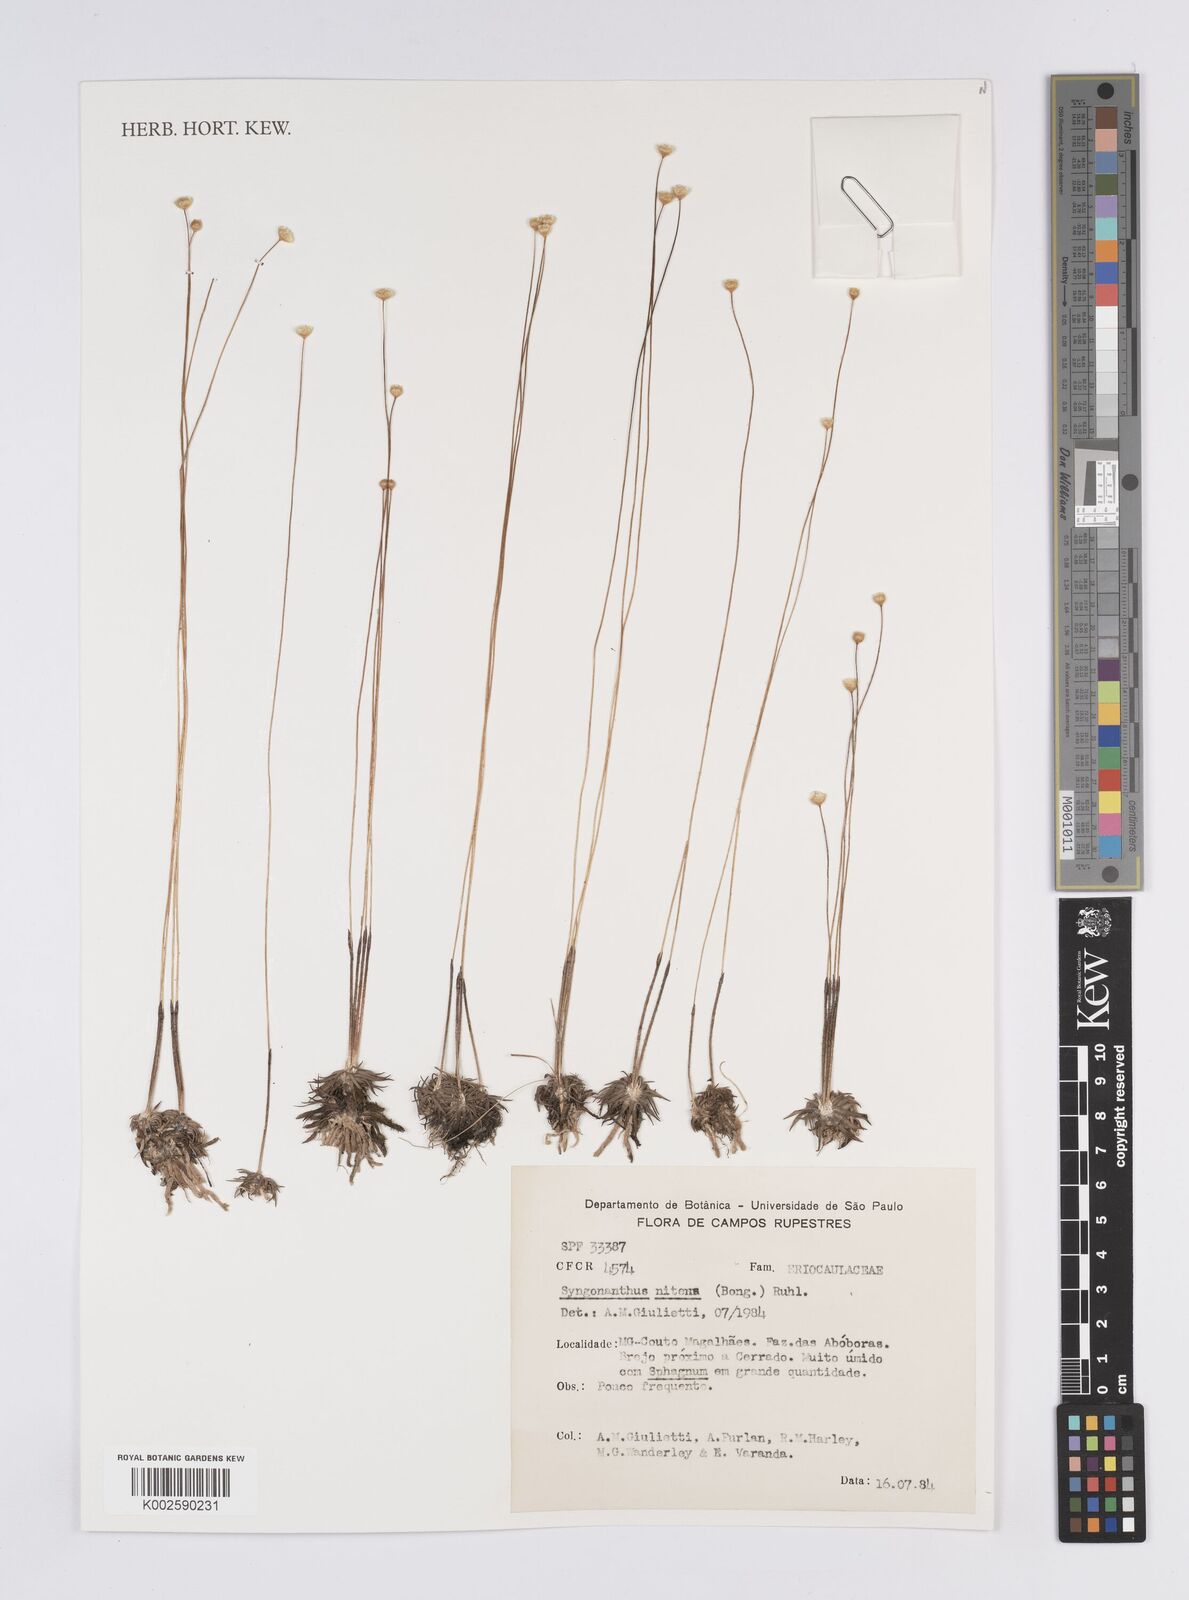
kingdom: Plantae
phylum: Tracheophyta
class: Liliopsida
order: Poales
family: Eriocaulaceae
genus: Syngonanthus
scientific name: Syngonanthus nitens
